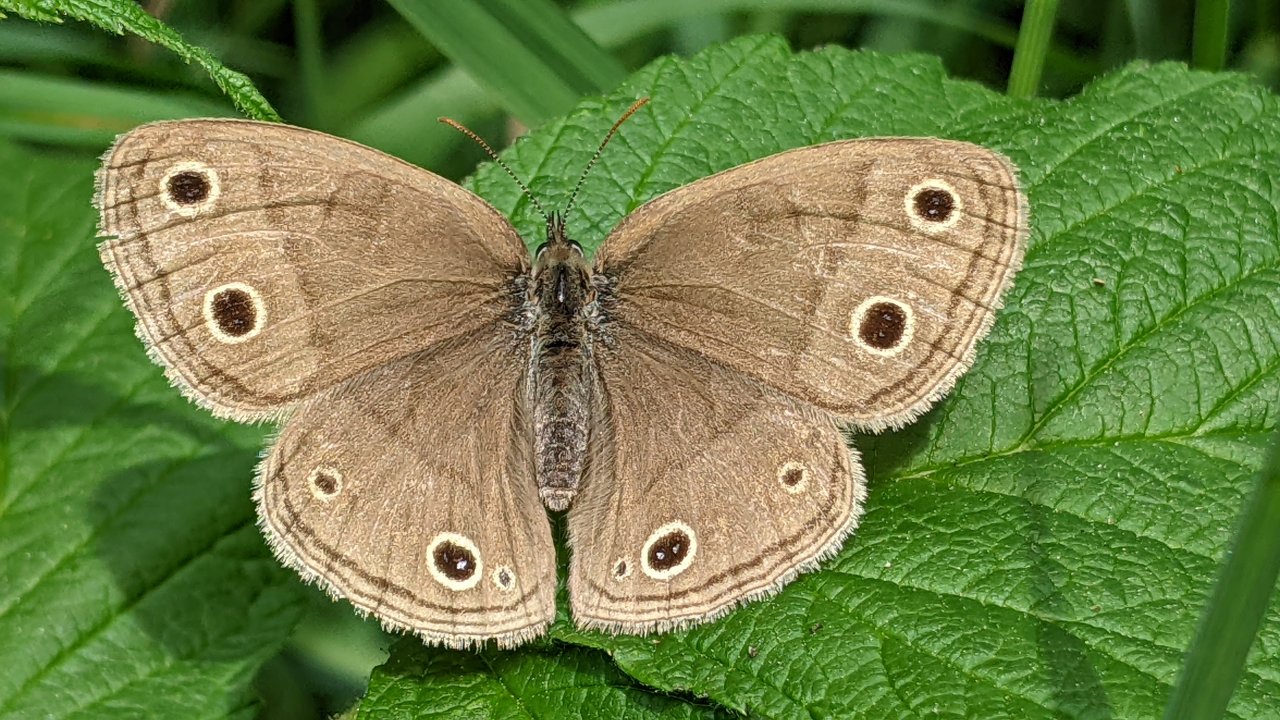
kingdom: Animalia
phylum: Arthropoda
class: Insecta
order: Lepidoptera
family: Nymphalidae
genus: Euptychia
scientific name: Euptychia cymela
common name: Little Wood Satyr
